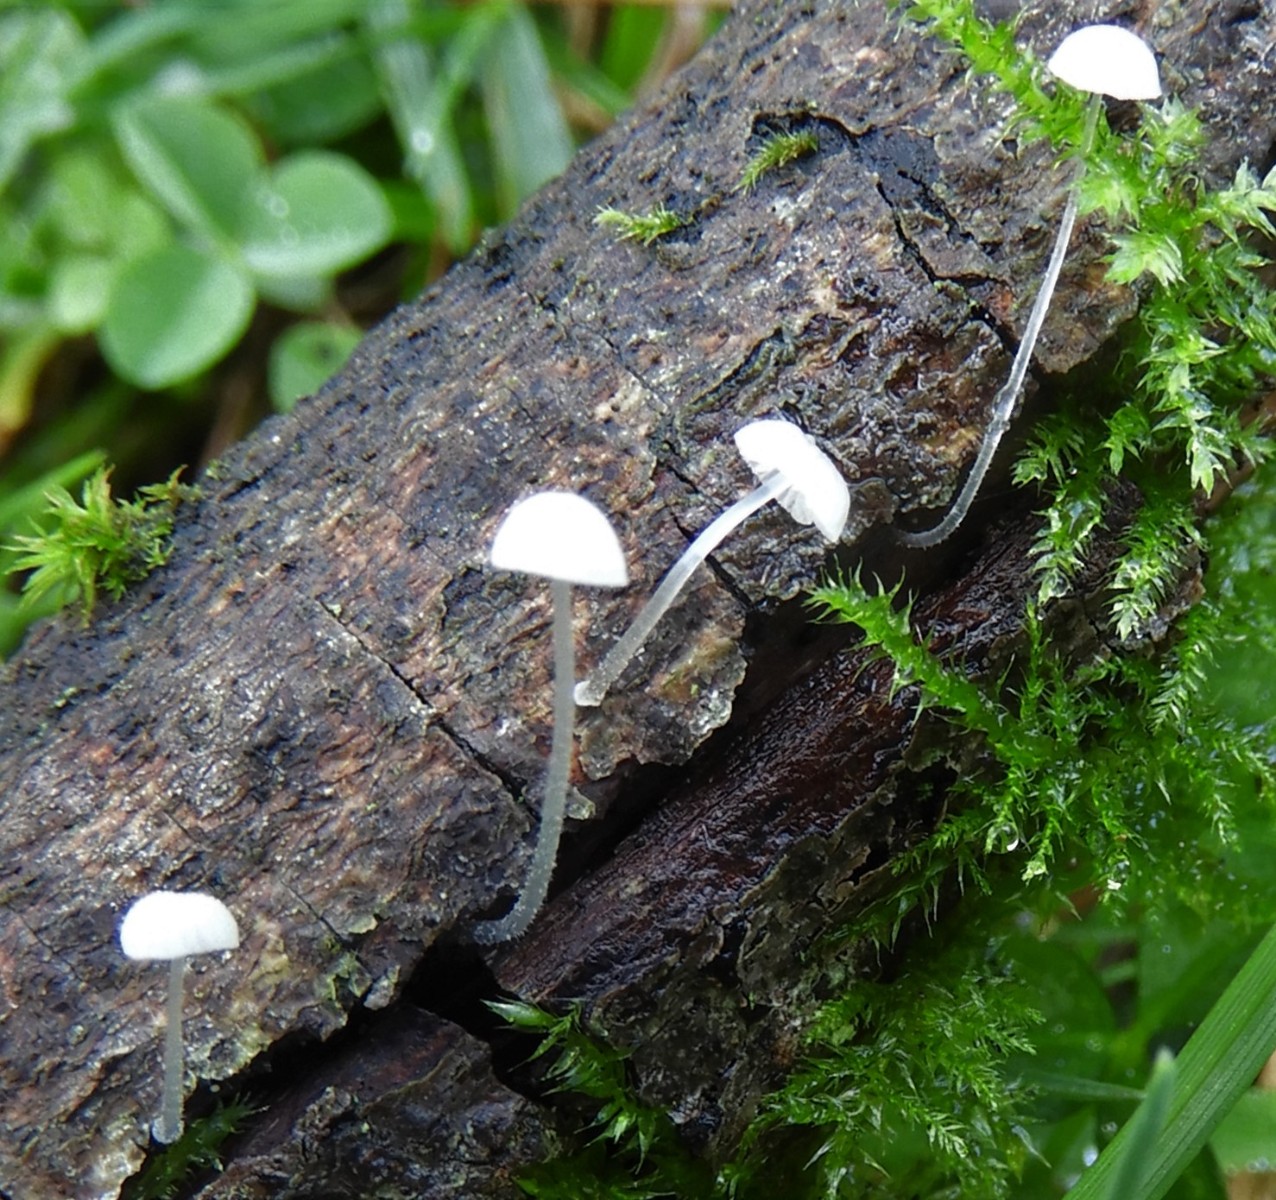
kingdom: Fungi
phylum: Basidiomycota
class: Agaricomycetes
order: Agaricales
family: Mycenaceae
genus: Mycena
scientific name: Mycena tenerrima
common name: pudret huesvamp
